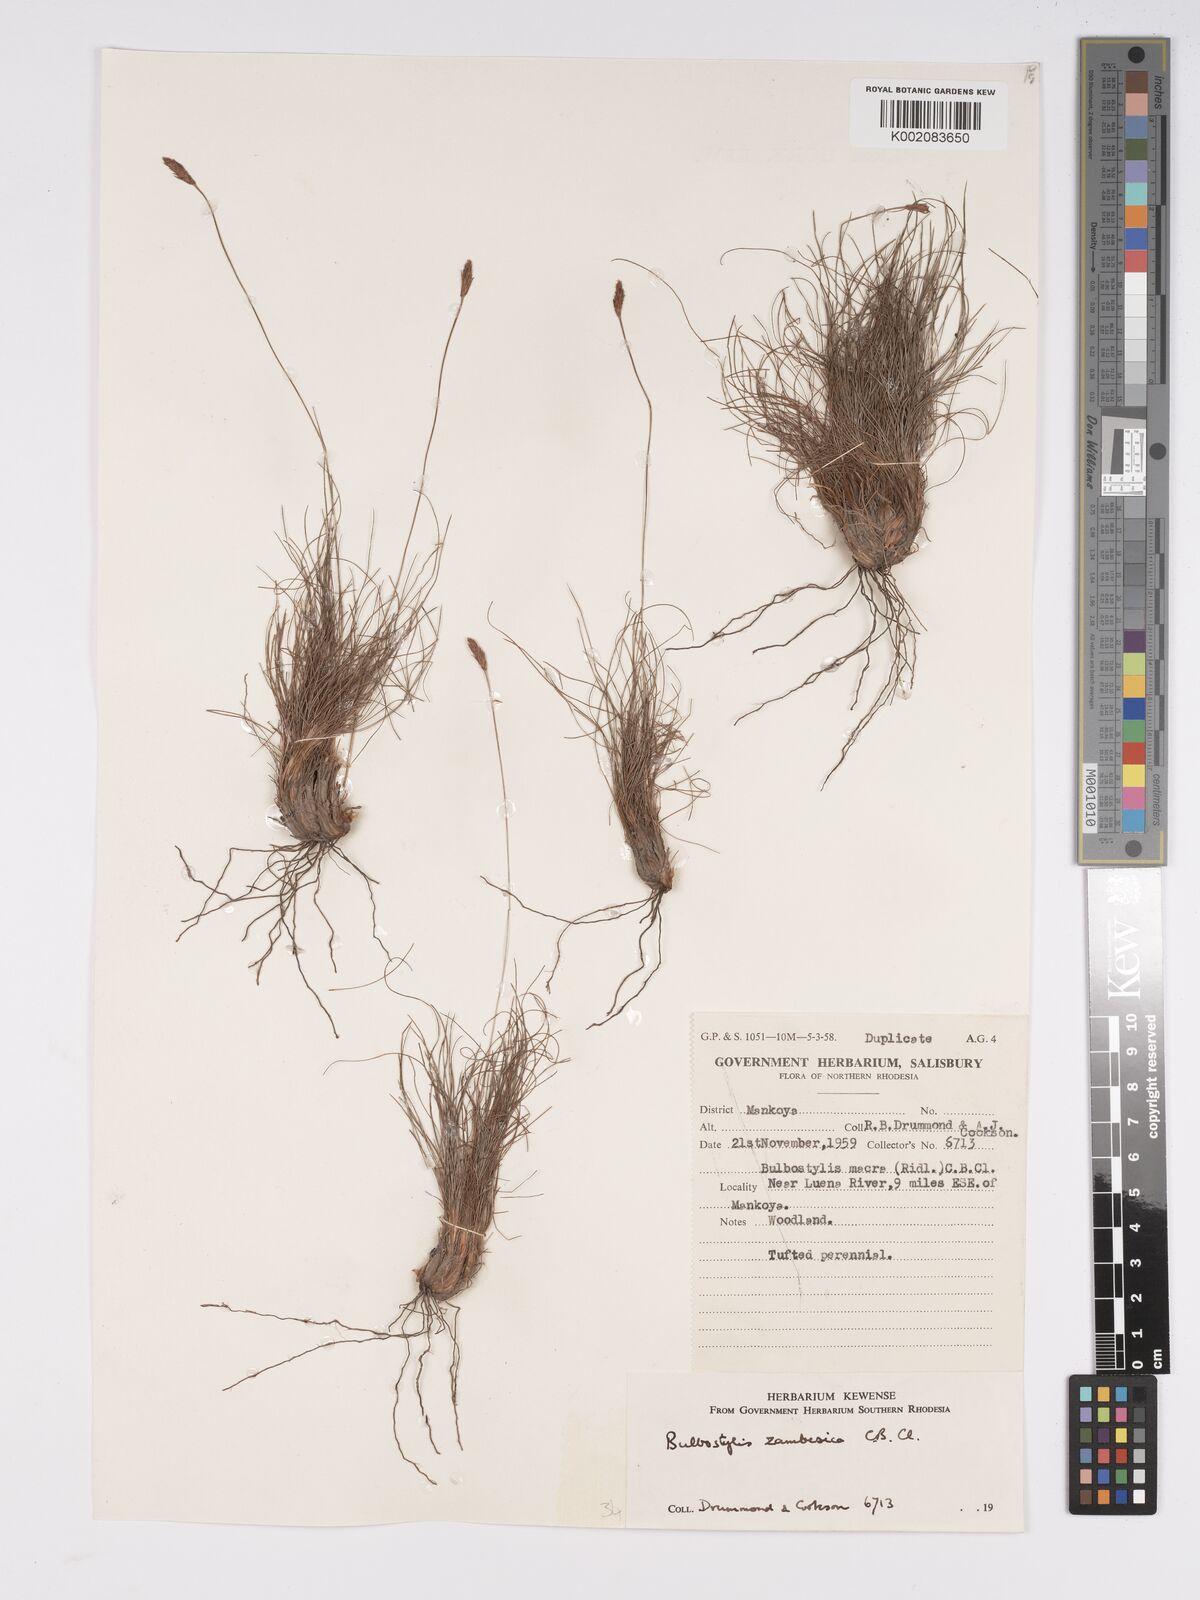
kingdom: Plantae
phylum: Tracheophyta
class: Liliopsida
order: Poales
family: Cyperaceae
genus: Bulbostylis
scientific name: Bulbostylis macra
